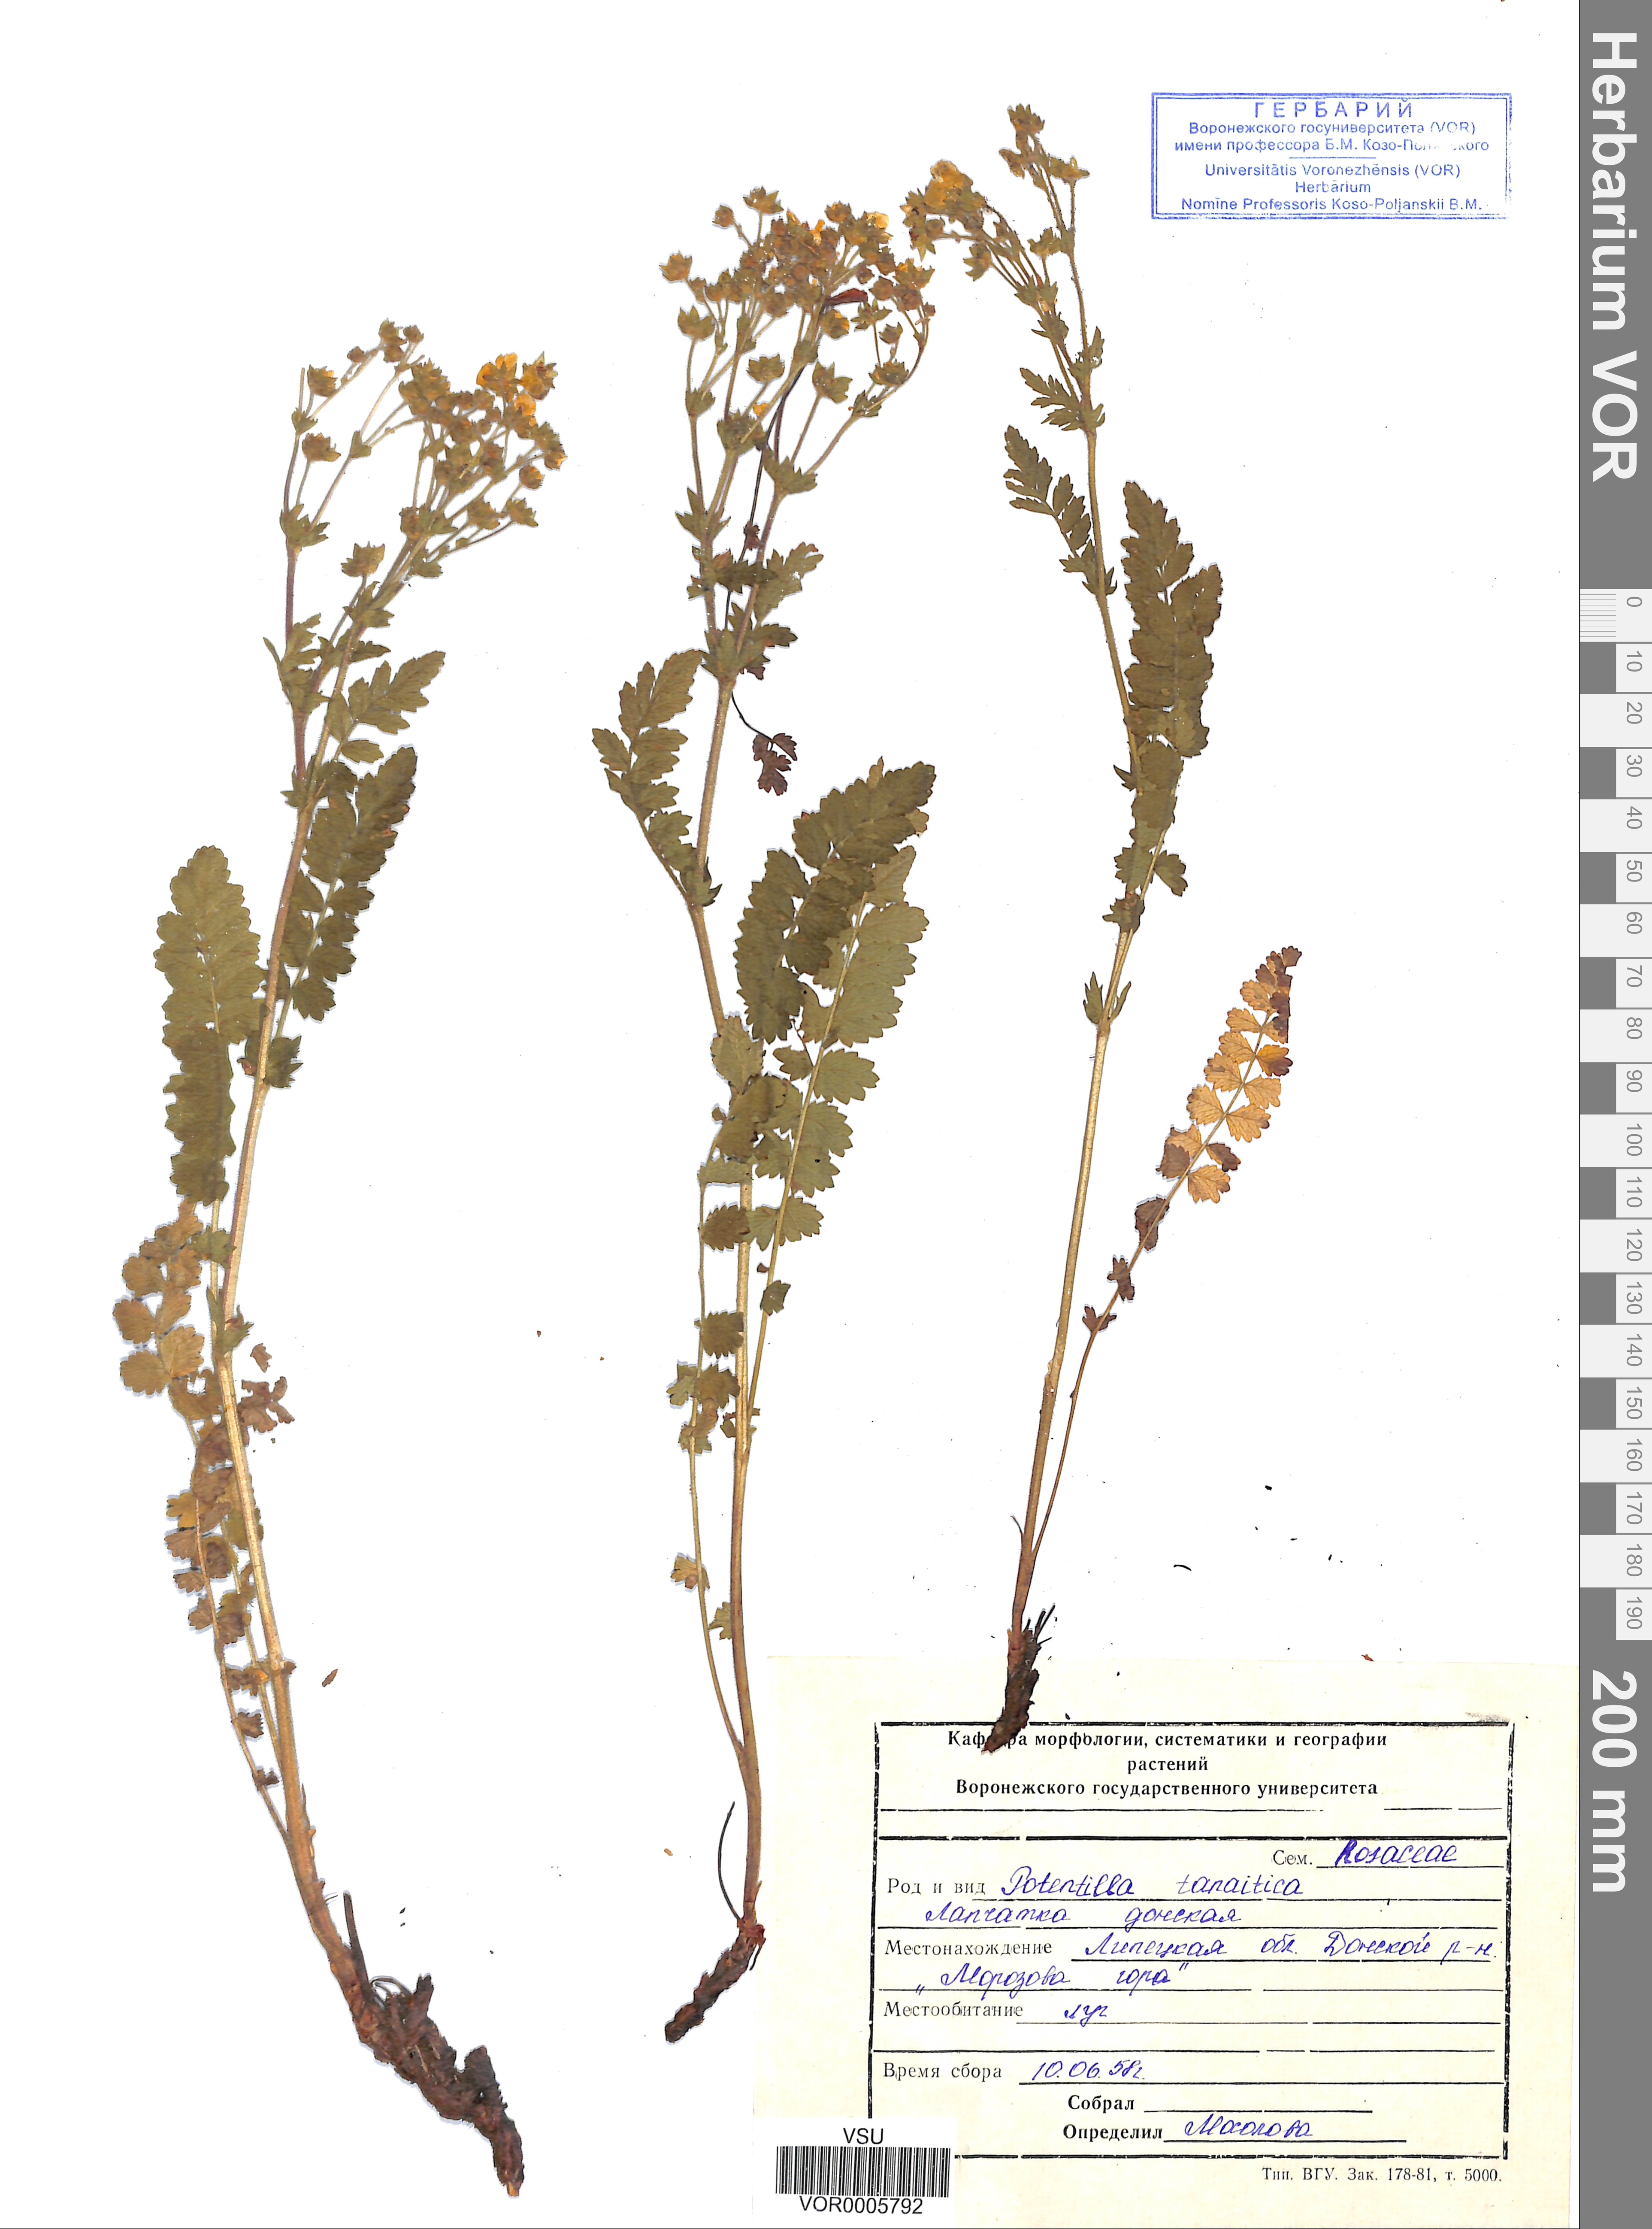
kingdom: Plantae
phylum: Tracheophyta
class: Magnoliopsida
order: Rosales
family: Rosaceae
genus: Potentilla
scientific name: Potentilla tanaitica
